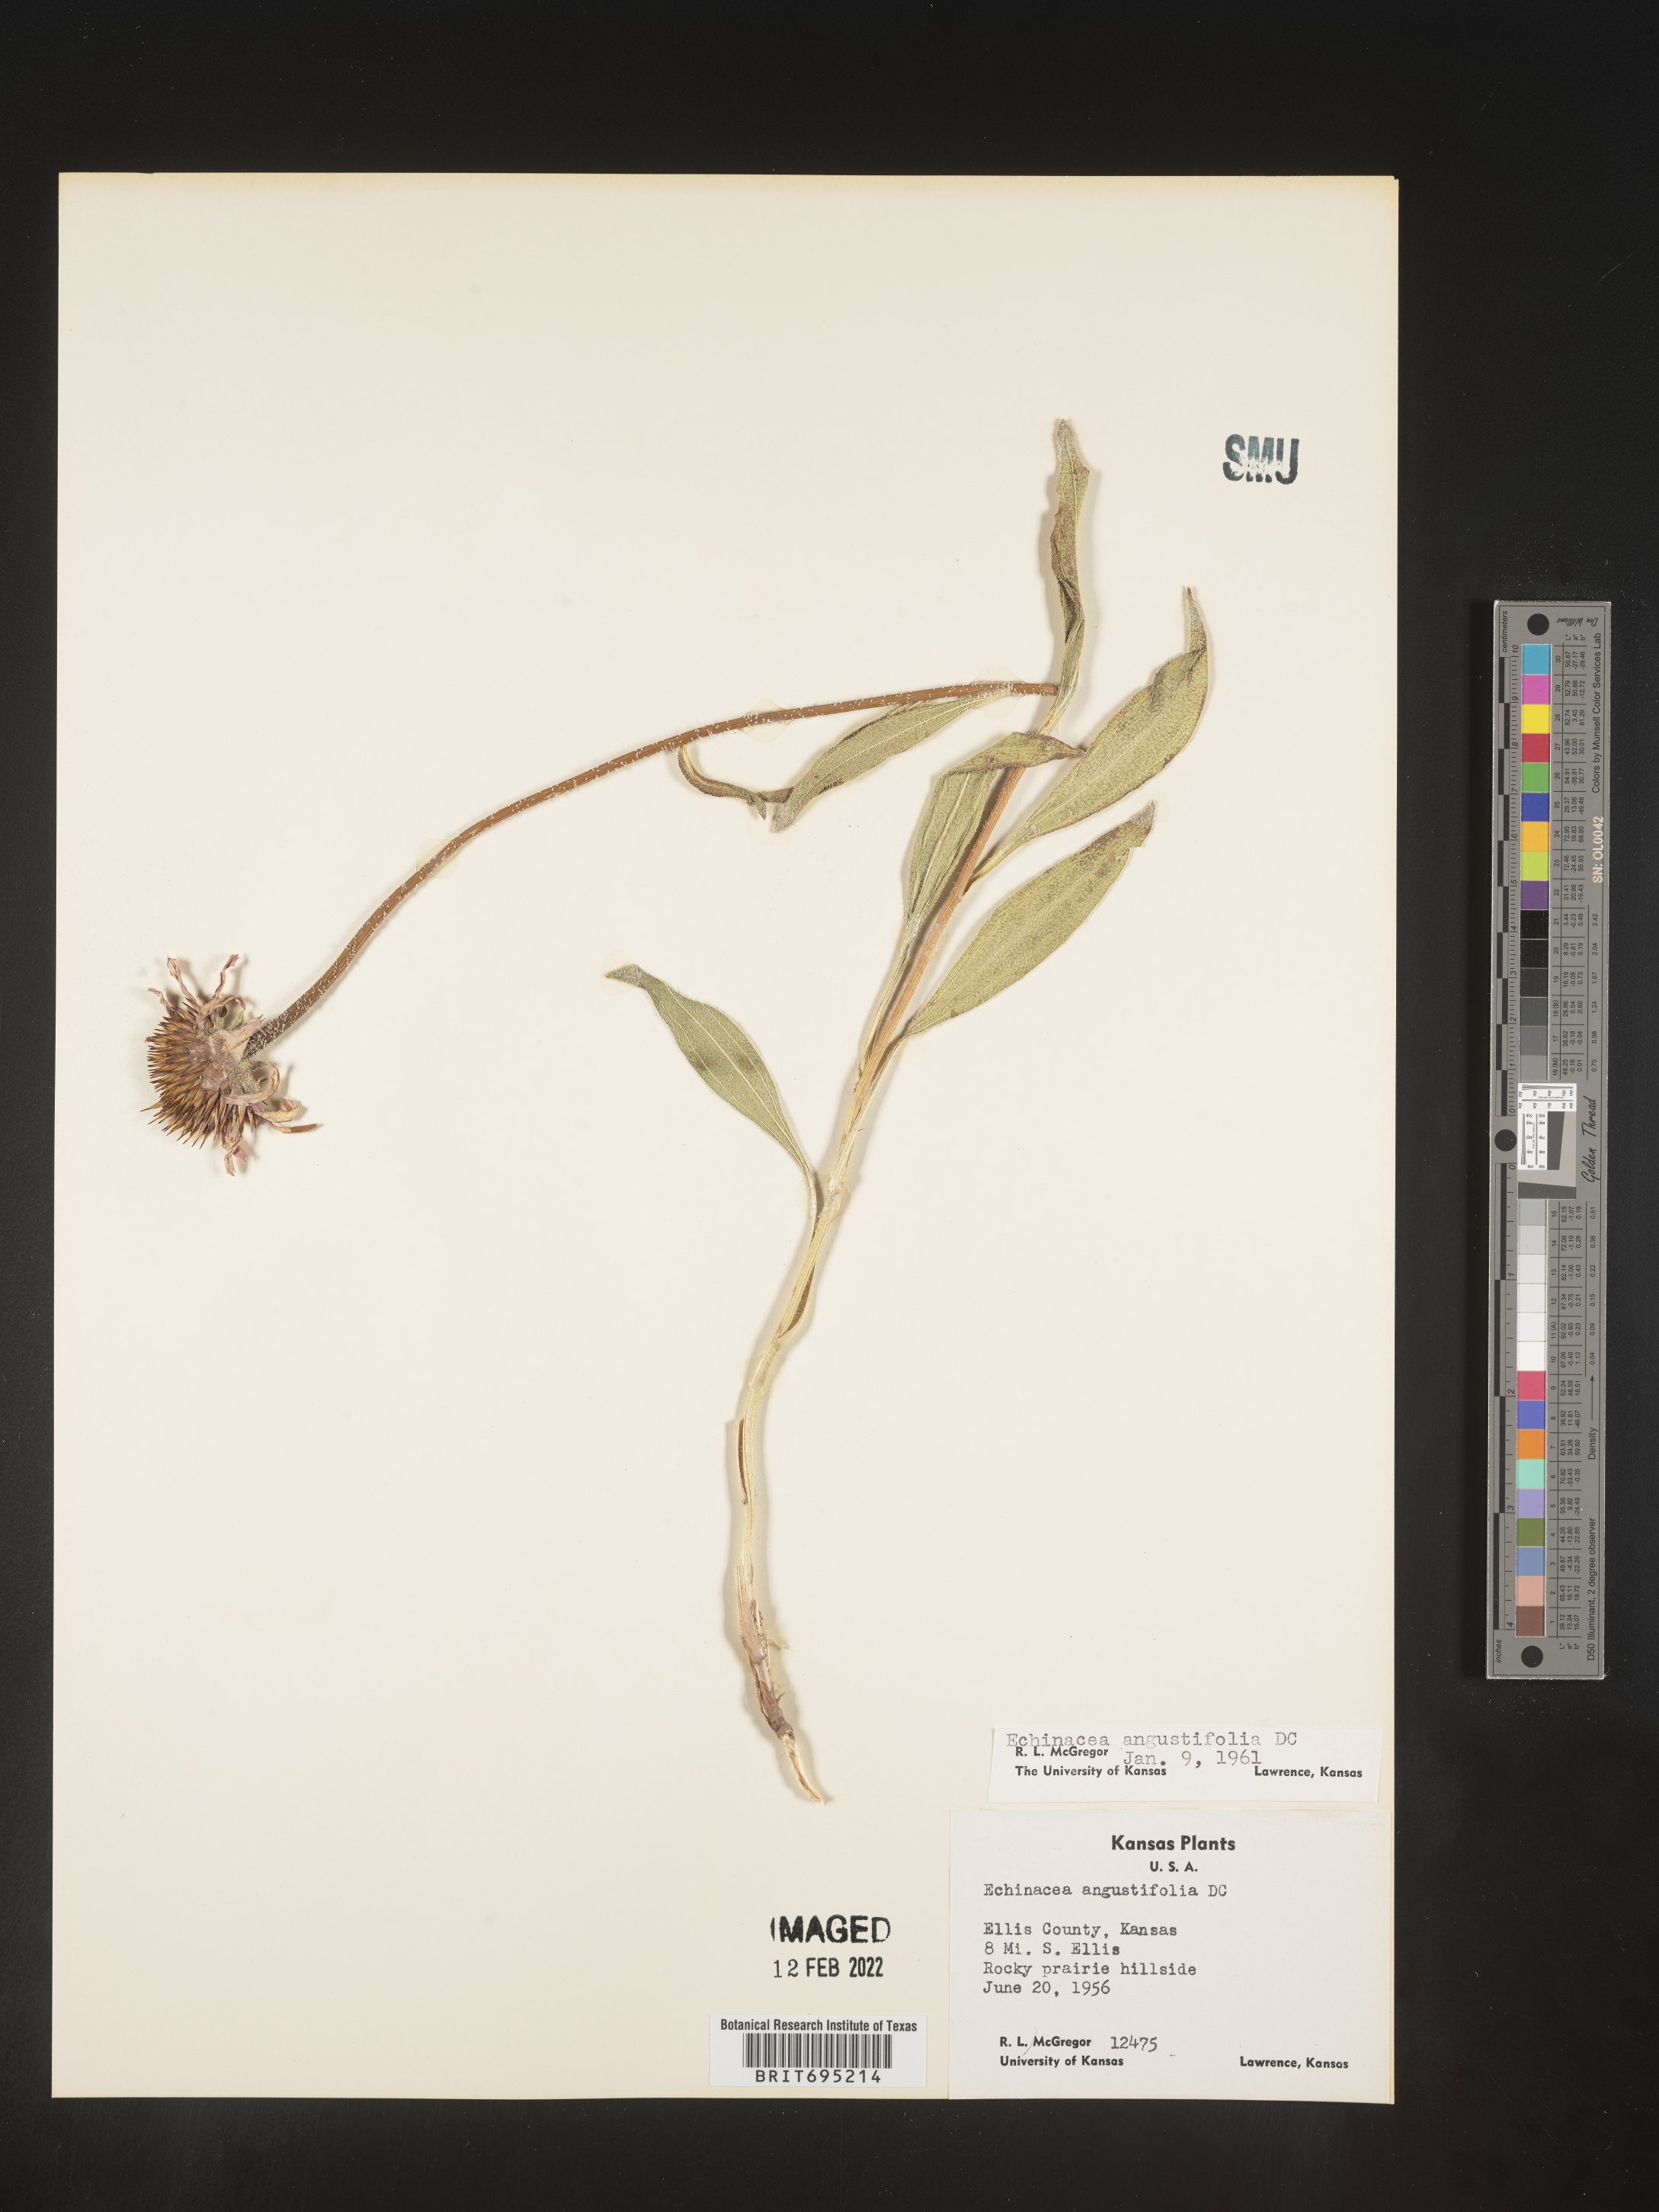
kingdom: Plantae
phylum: Tracheophyta
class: Magnoliopsida
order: Asterales
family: Asteraceae
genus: Echinacea
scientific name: Echinacea angustifolia
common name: Black-sampson echinacea
